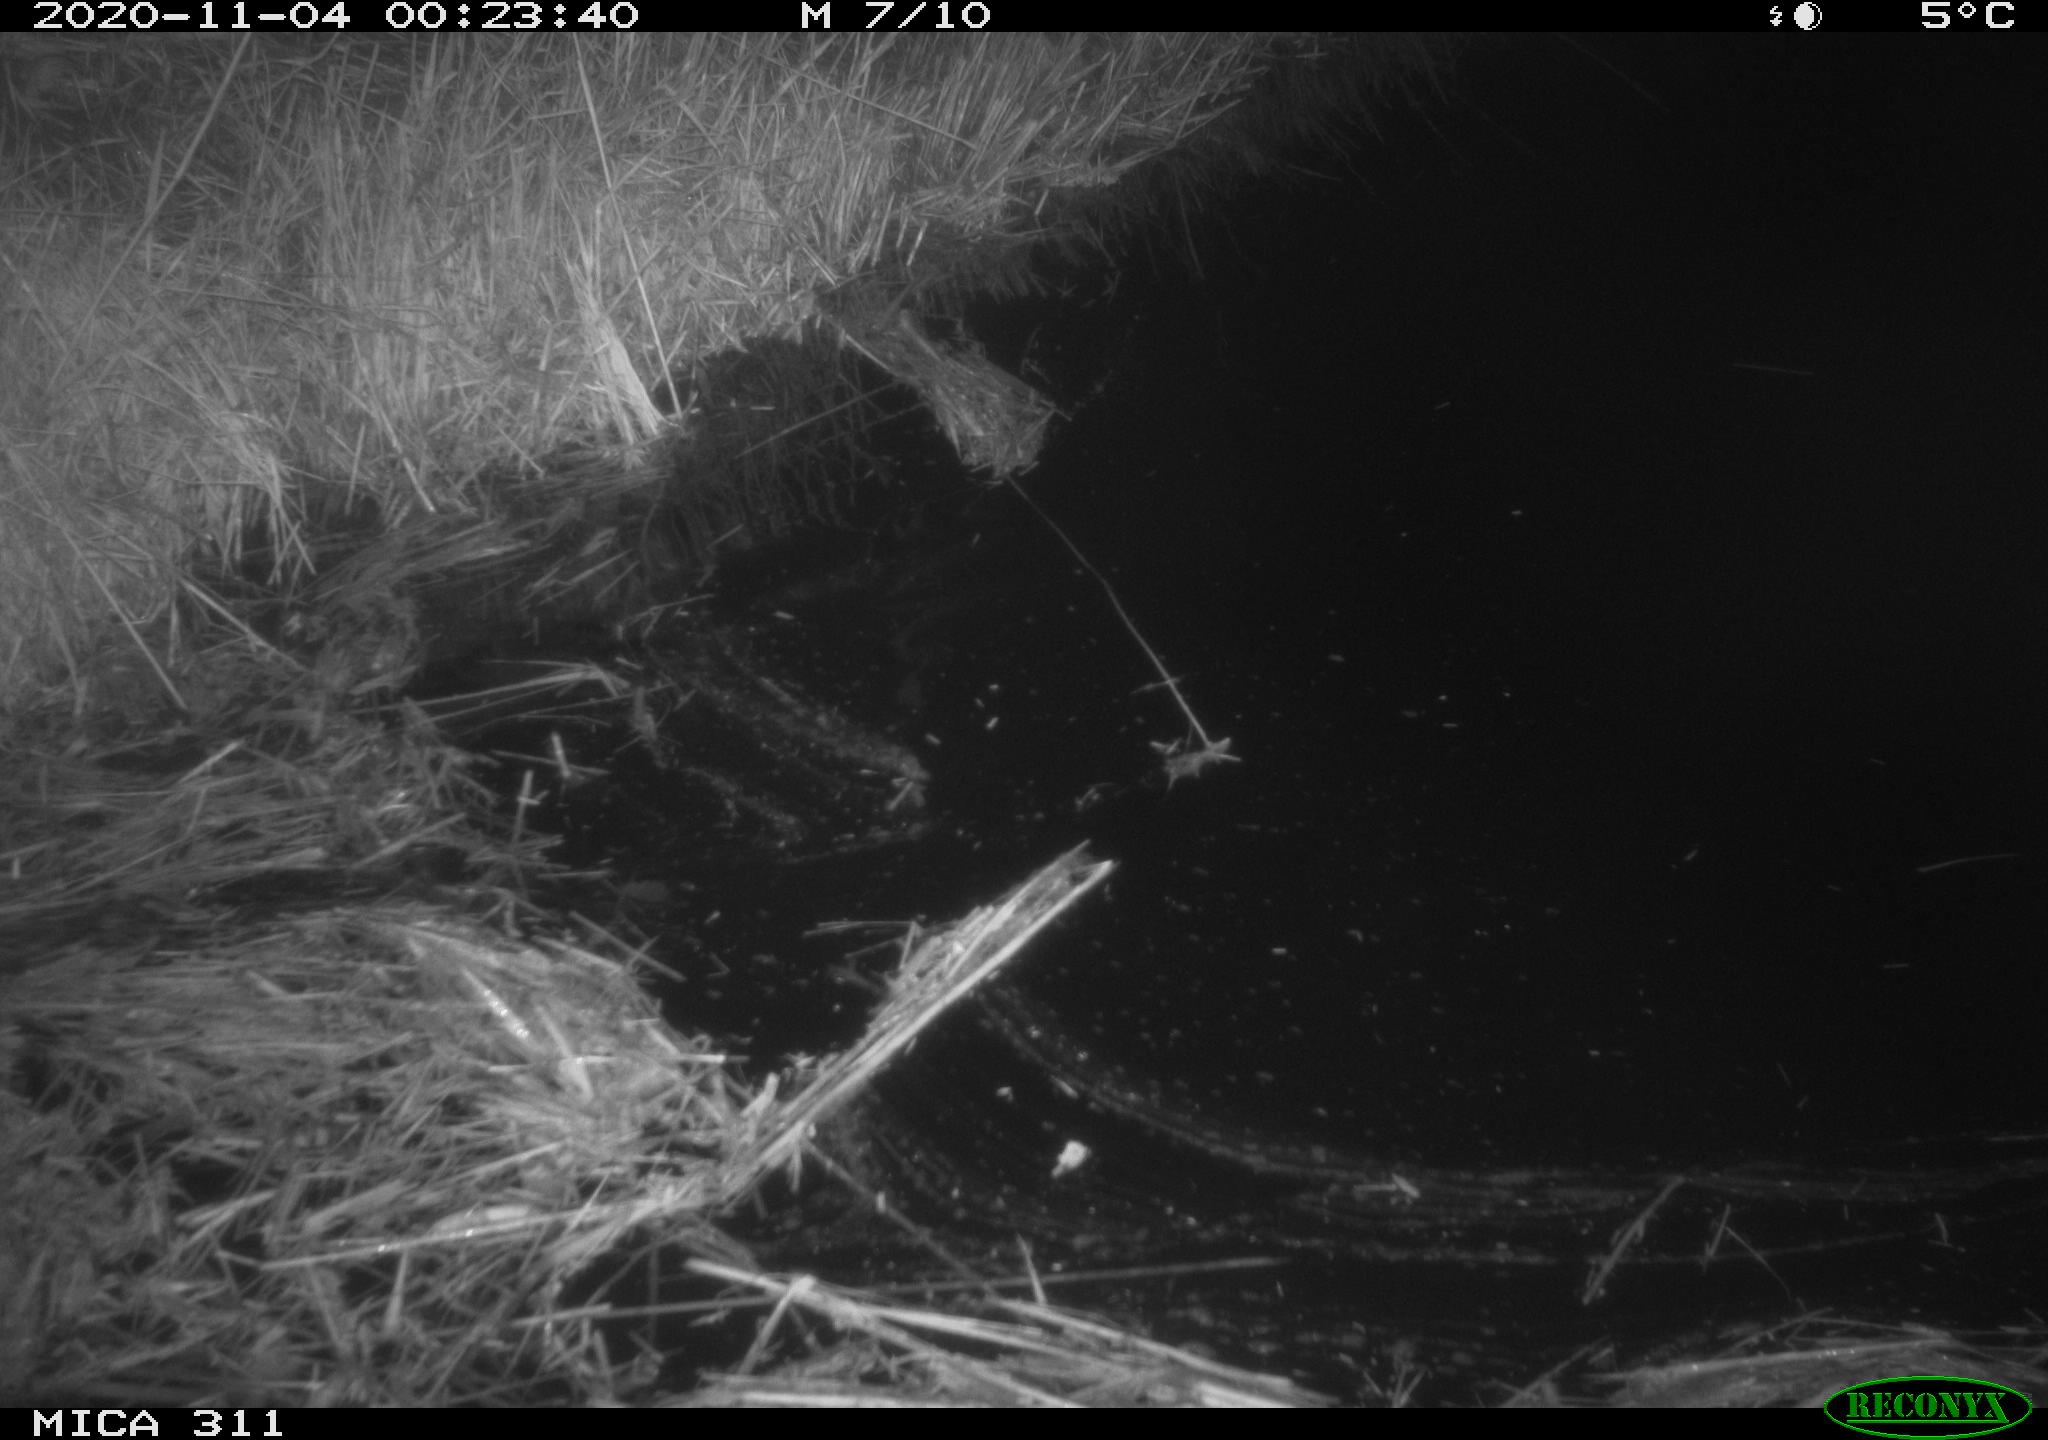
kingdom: Animalia
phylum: Chordata
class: Mammalia
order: Rodentia
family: Muridae
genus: Rattus
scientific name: Rattus norvegicus
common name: Brown rat
